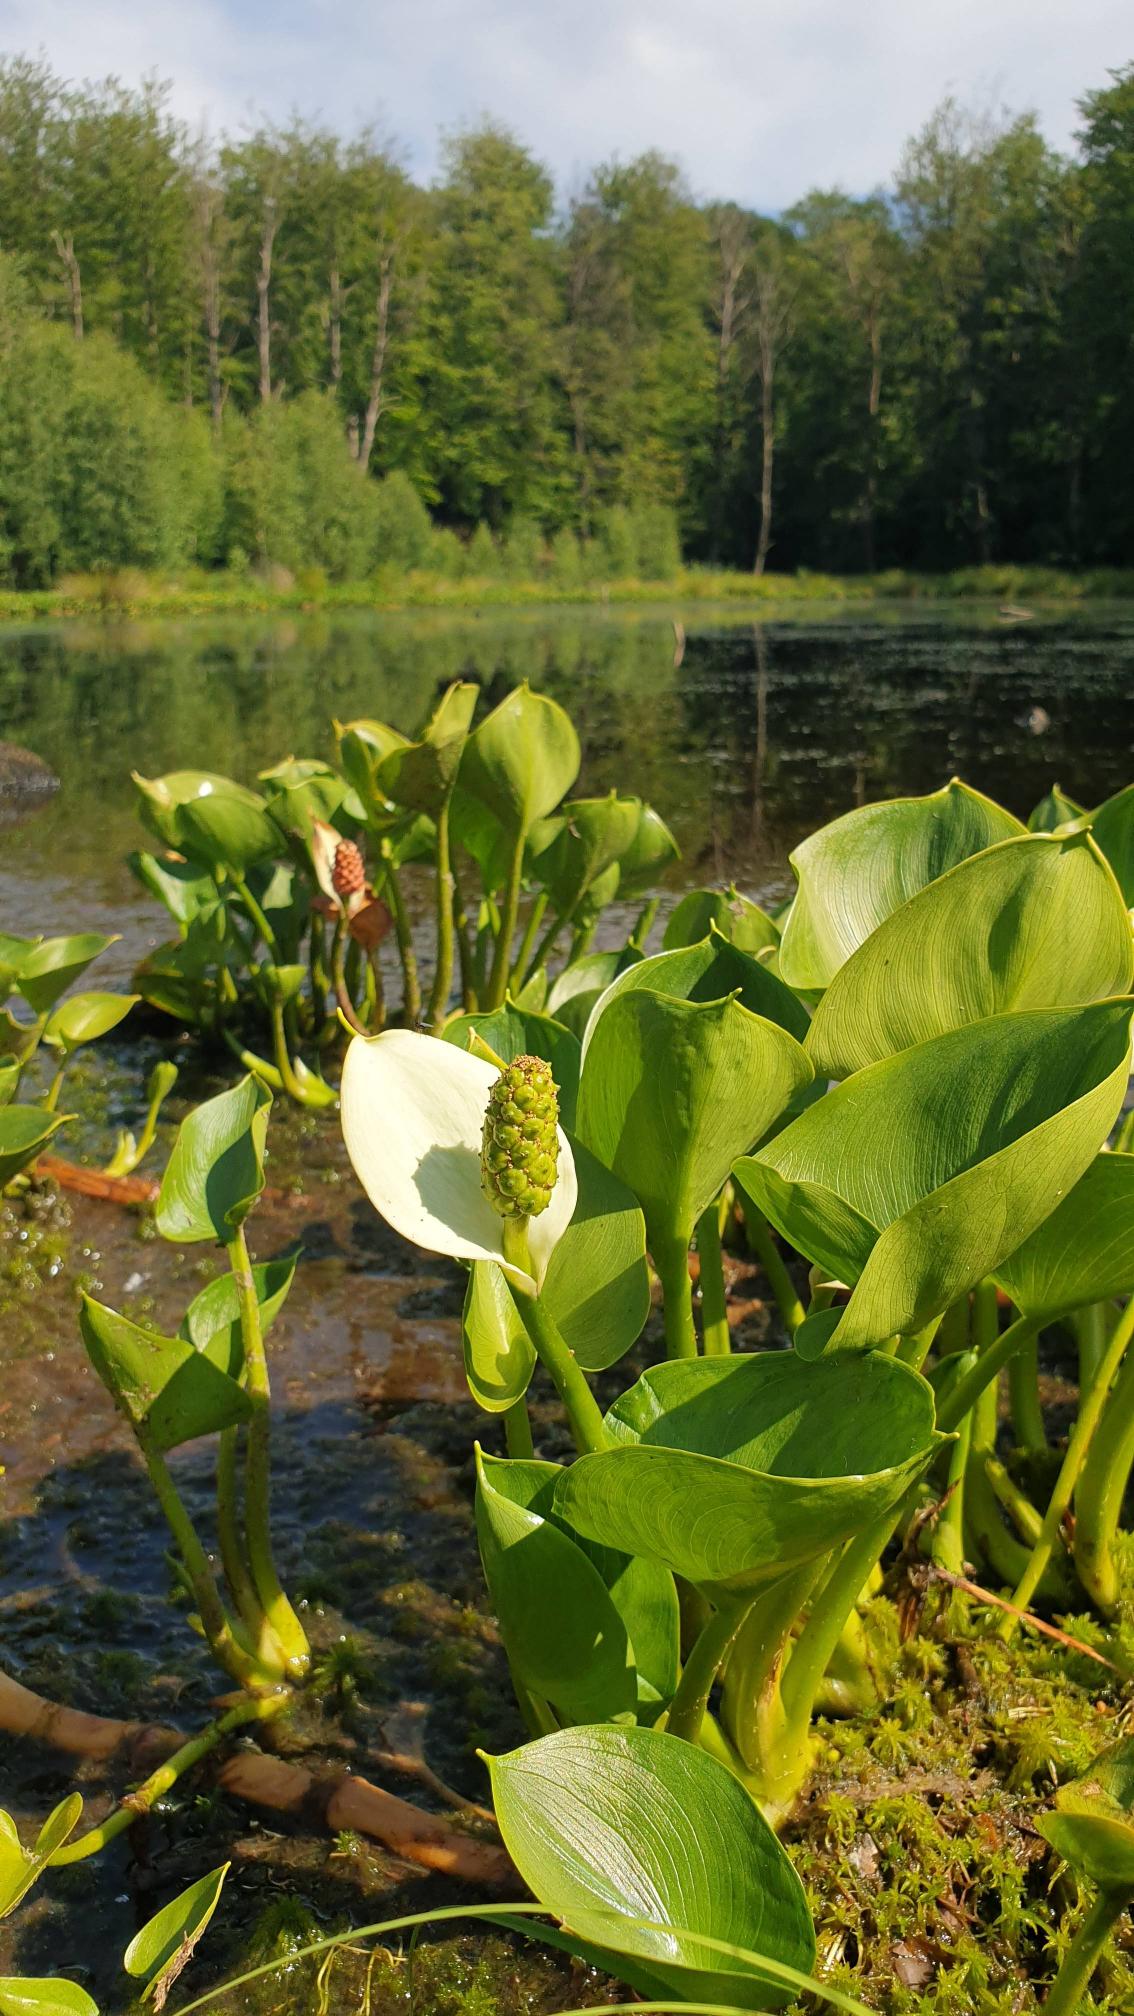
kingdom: Plantae
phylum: Tracheophyta
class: Liliopsida
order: Alismatales
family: Araceae
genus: Calla
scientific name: Calla palustris
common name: Kærmysse
